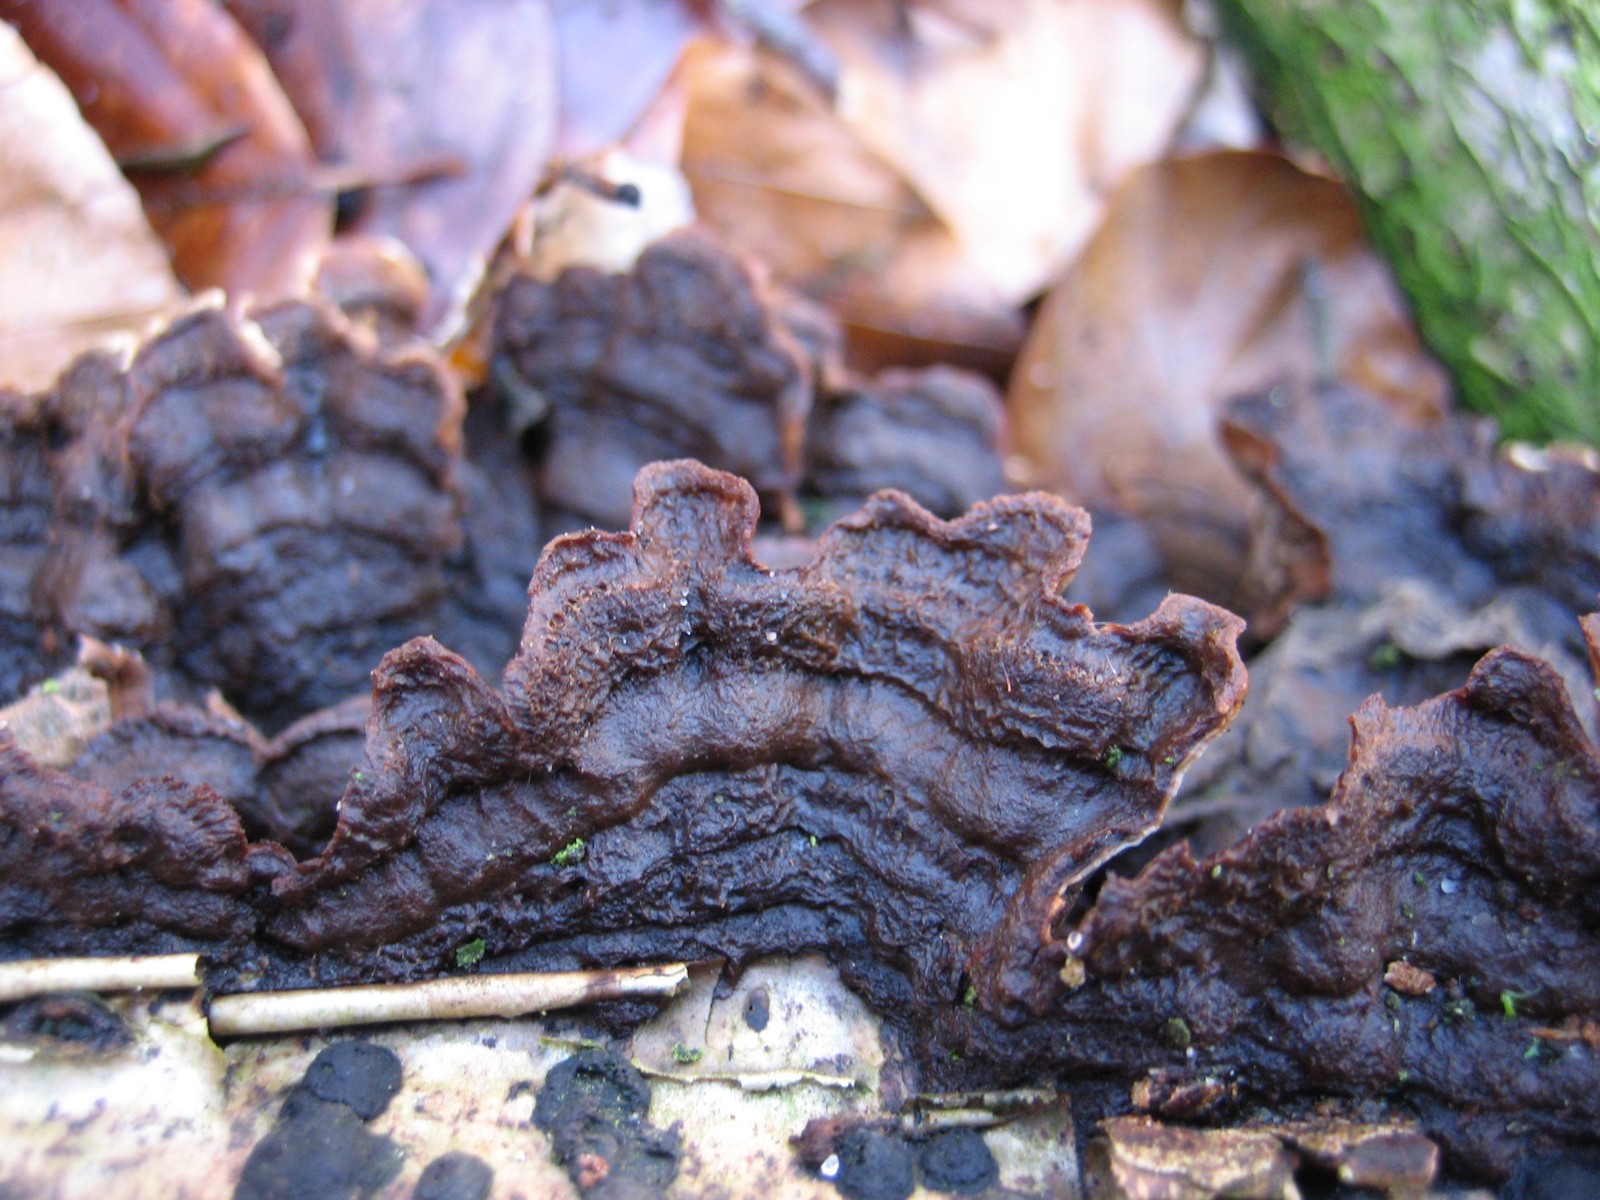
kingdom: Fungi
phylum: Basidiomycota
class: Agaricomycetes
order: Hymenochaetales
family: Hymenochaetaceae
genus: Hymenochaete
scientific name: Hymenochaete rubiginosa
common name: stiv ruslædersvamp
